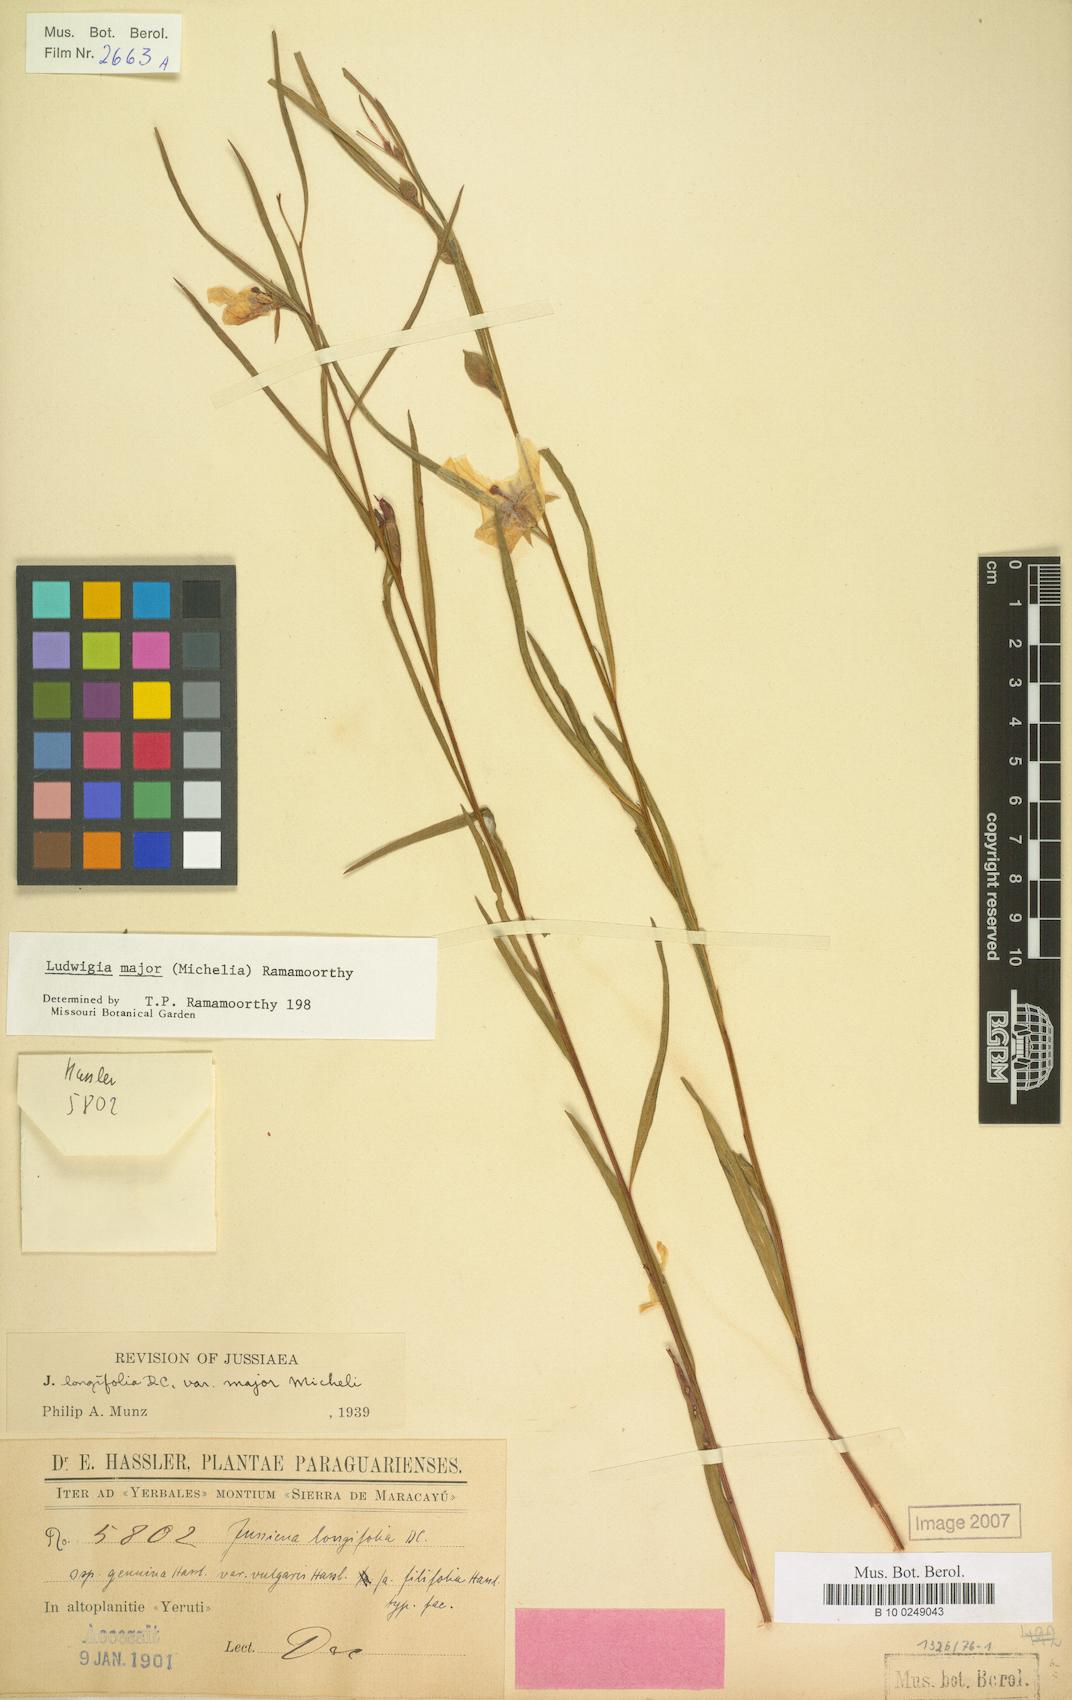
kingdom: Plantae
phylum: Tracheophyta
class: Magnoliopsida
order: Myrtales
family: Onagraceae
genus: Ludwigia
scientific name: Ludwigia major
